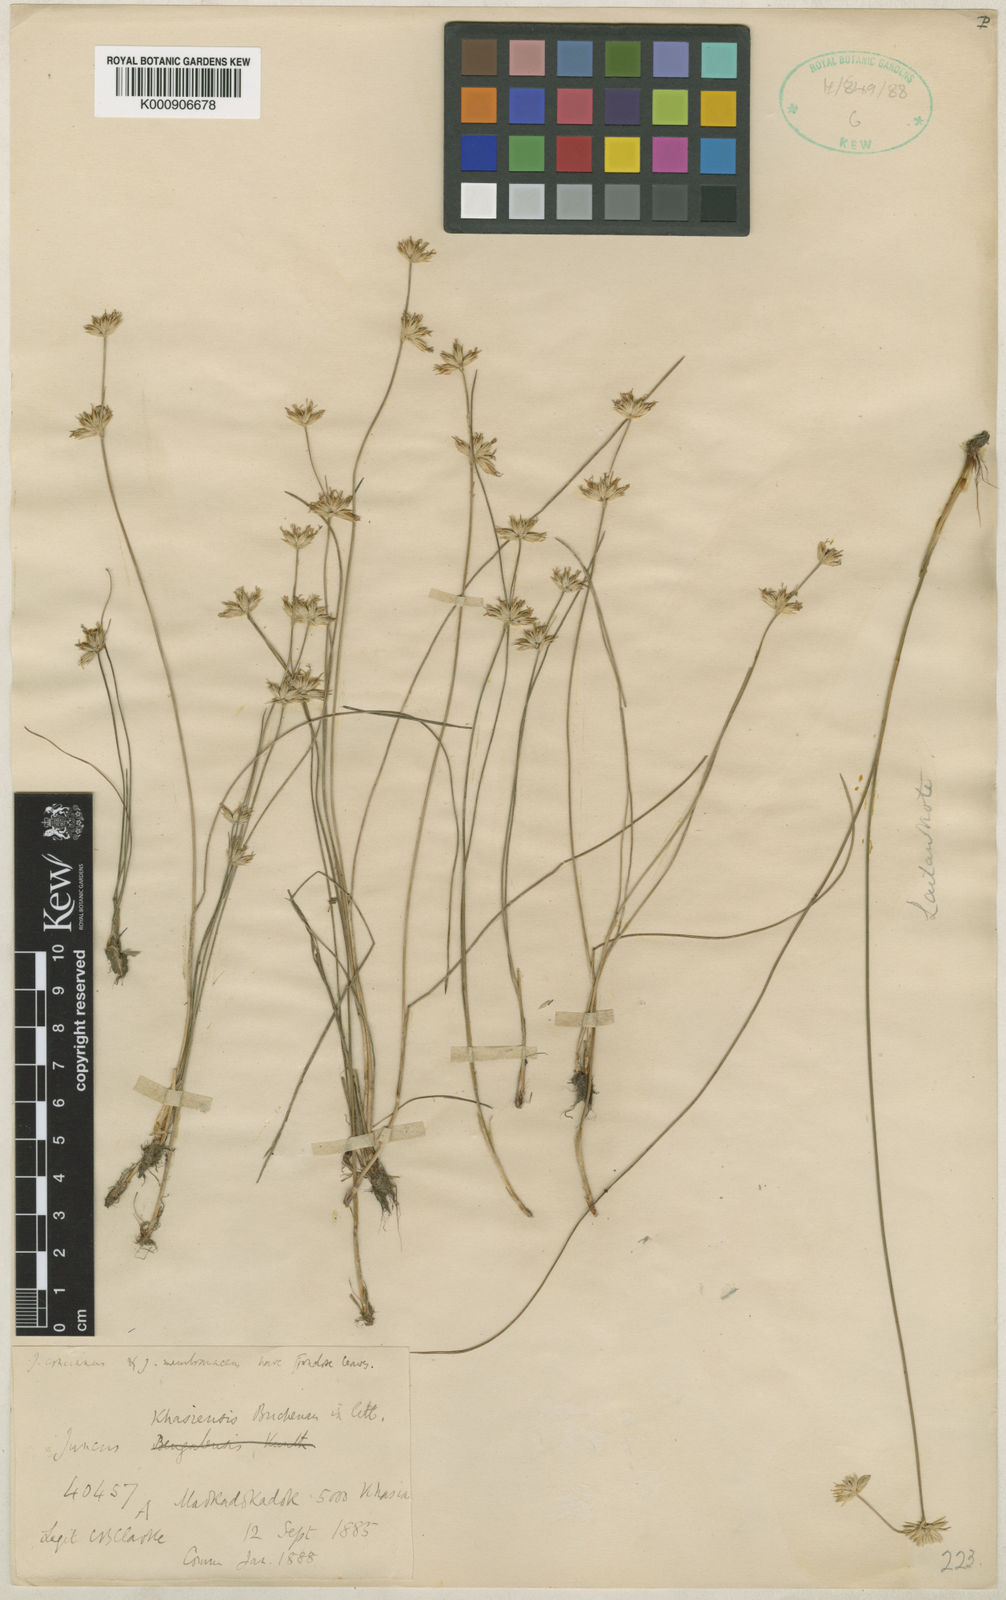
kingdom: Plantae
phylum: Tracheophyta
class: Liliopsida
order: Poales
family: Juncaceae
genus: Juncus
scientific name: Juncus khasiensis
